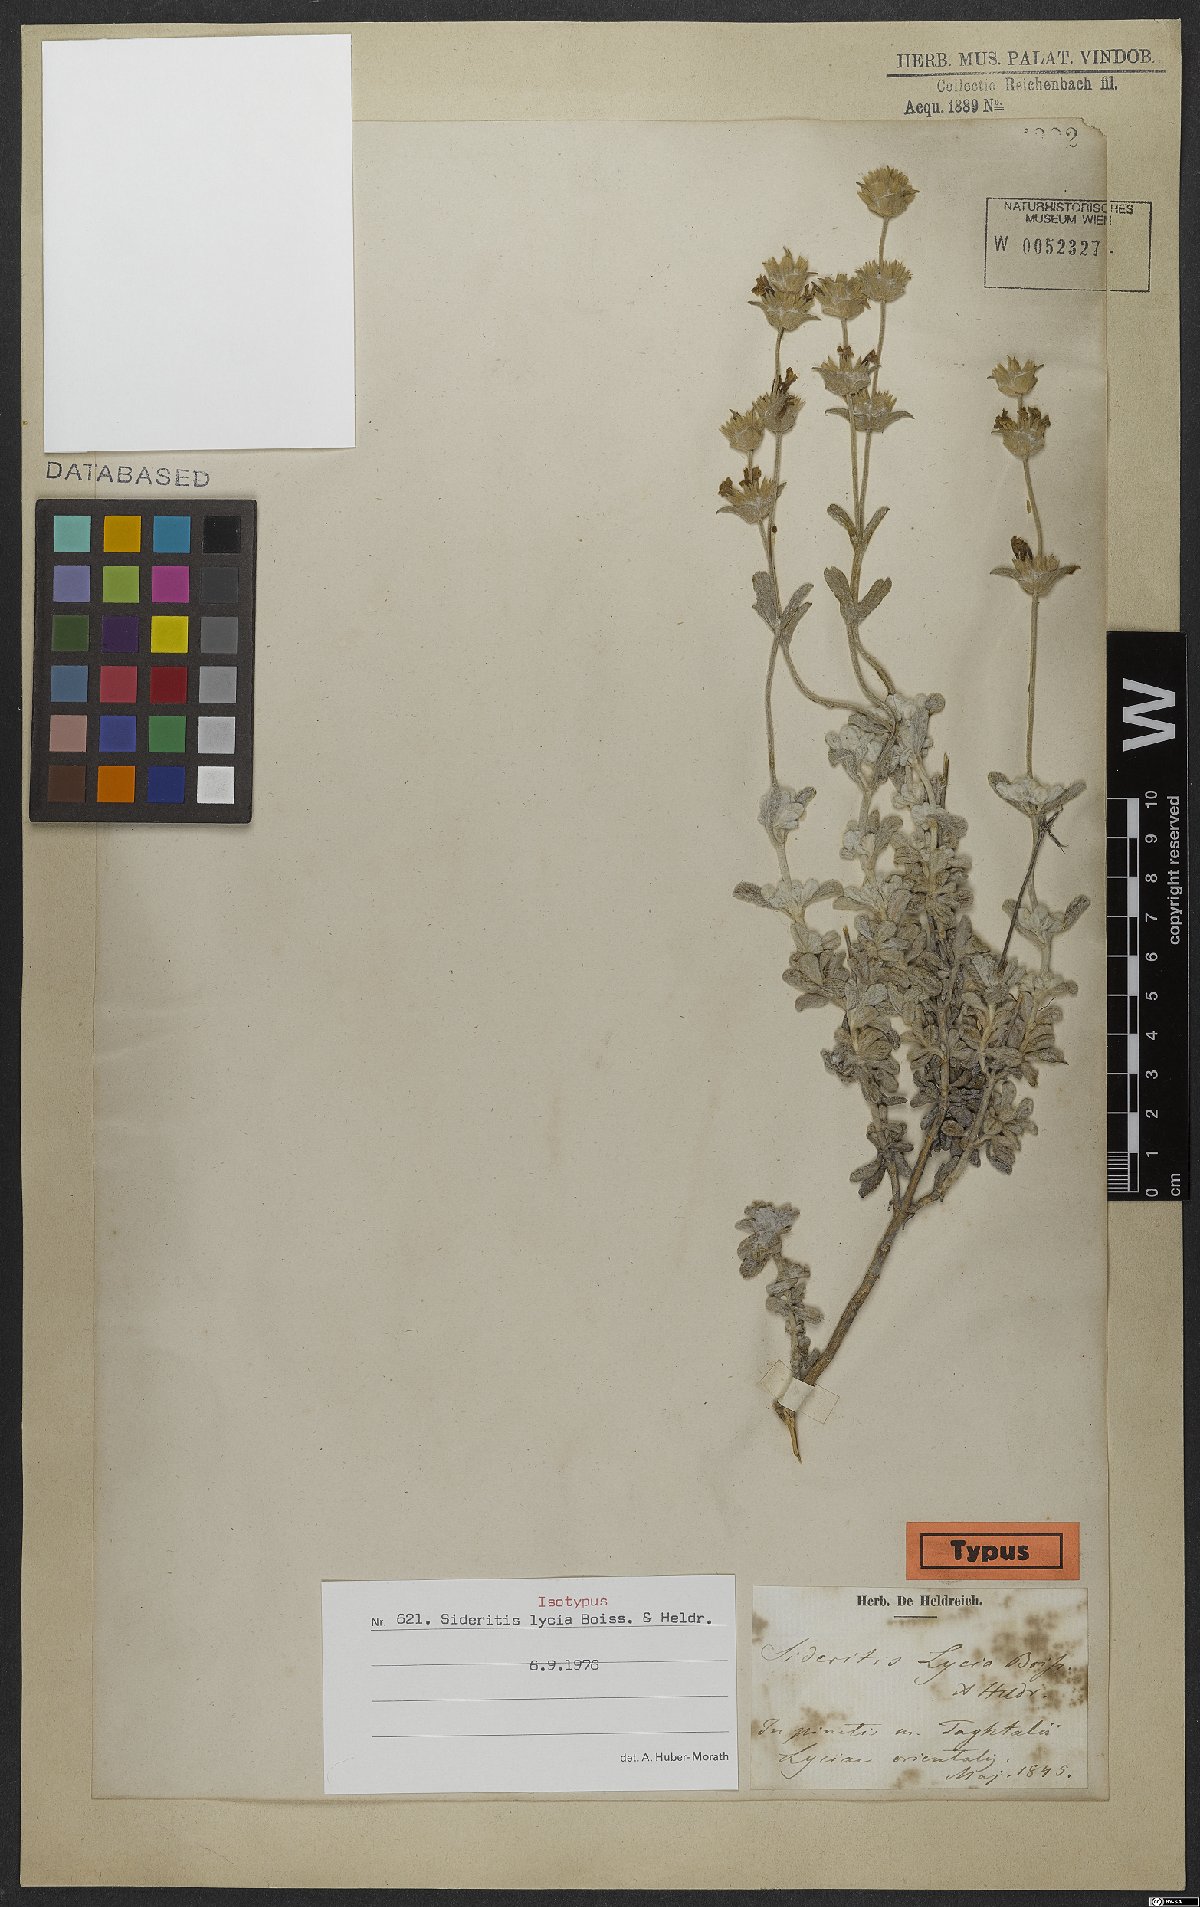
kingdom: Plantae
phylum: Tracheophyta
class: Magnoliopsida
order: Lamiales
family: Lamiaceae
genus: Sideritis
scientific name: Sideritis lycia
